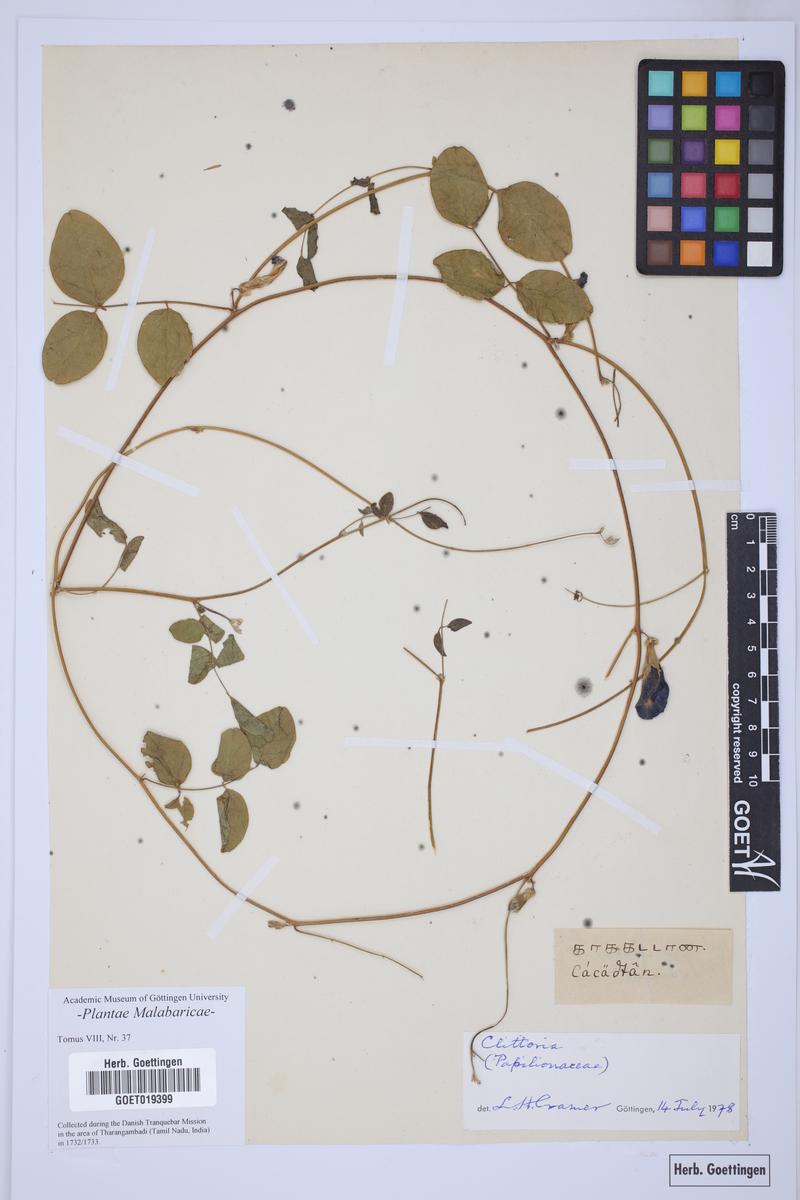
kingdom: Plantae
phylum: Tracheophyta
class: Magnoliopsida
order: Fabales
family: Fabaceae
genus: Clitoria
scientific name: Clitoria
